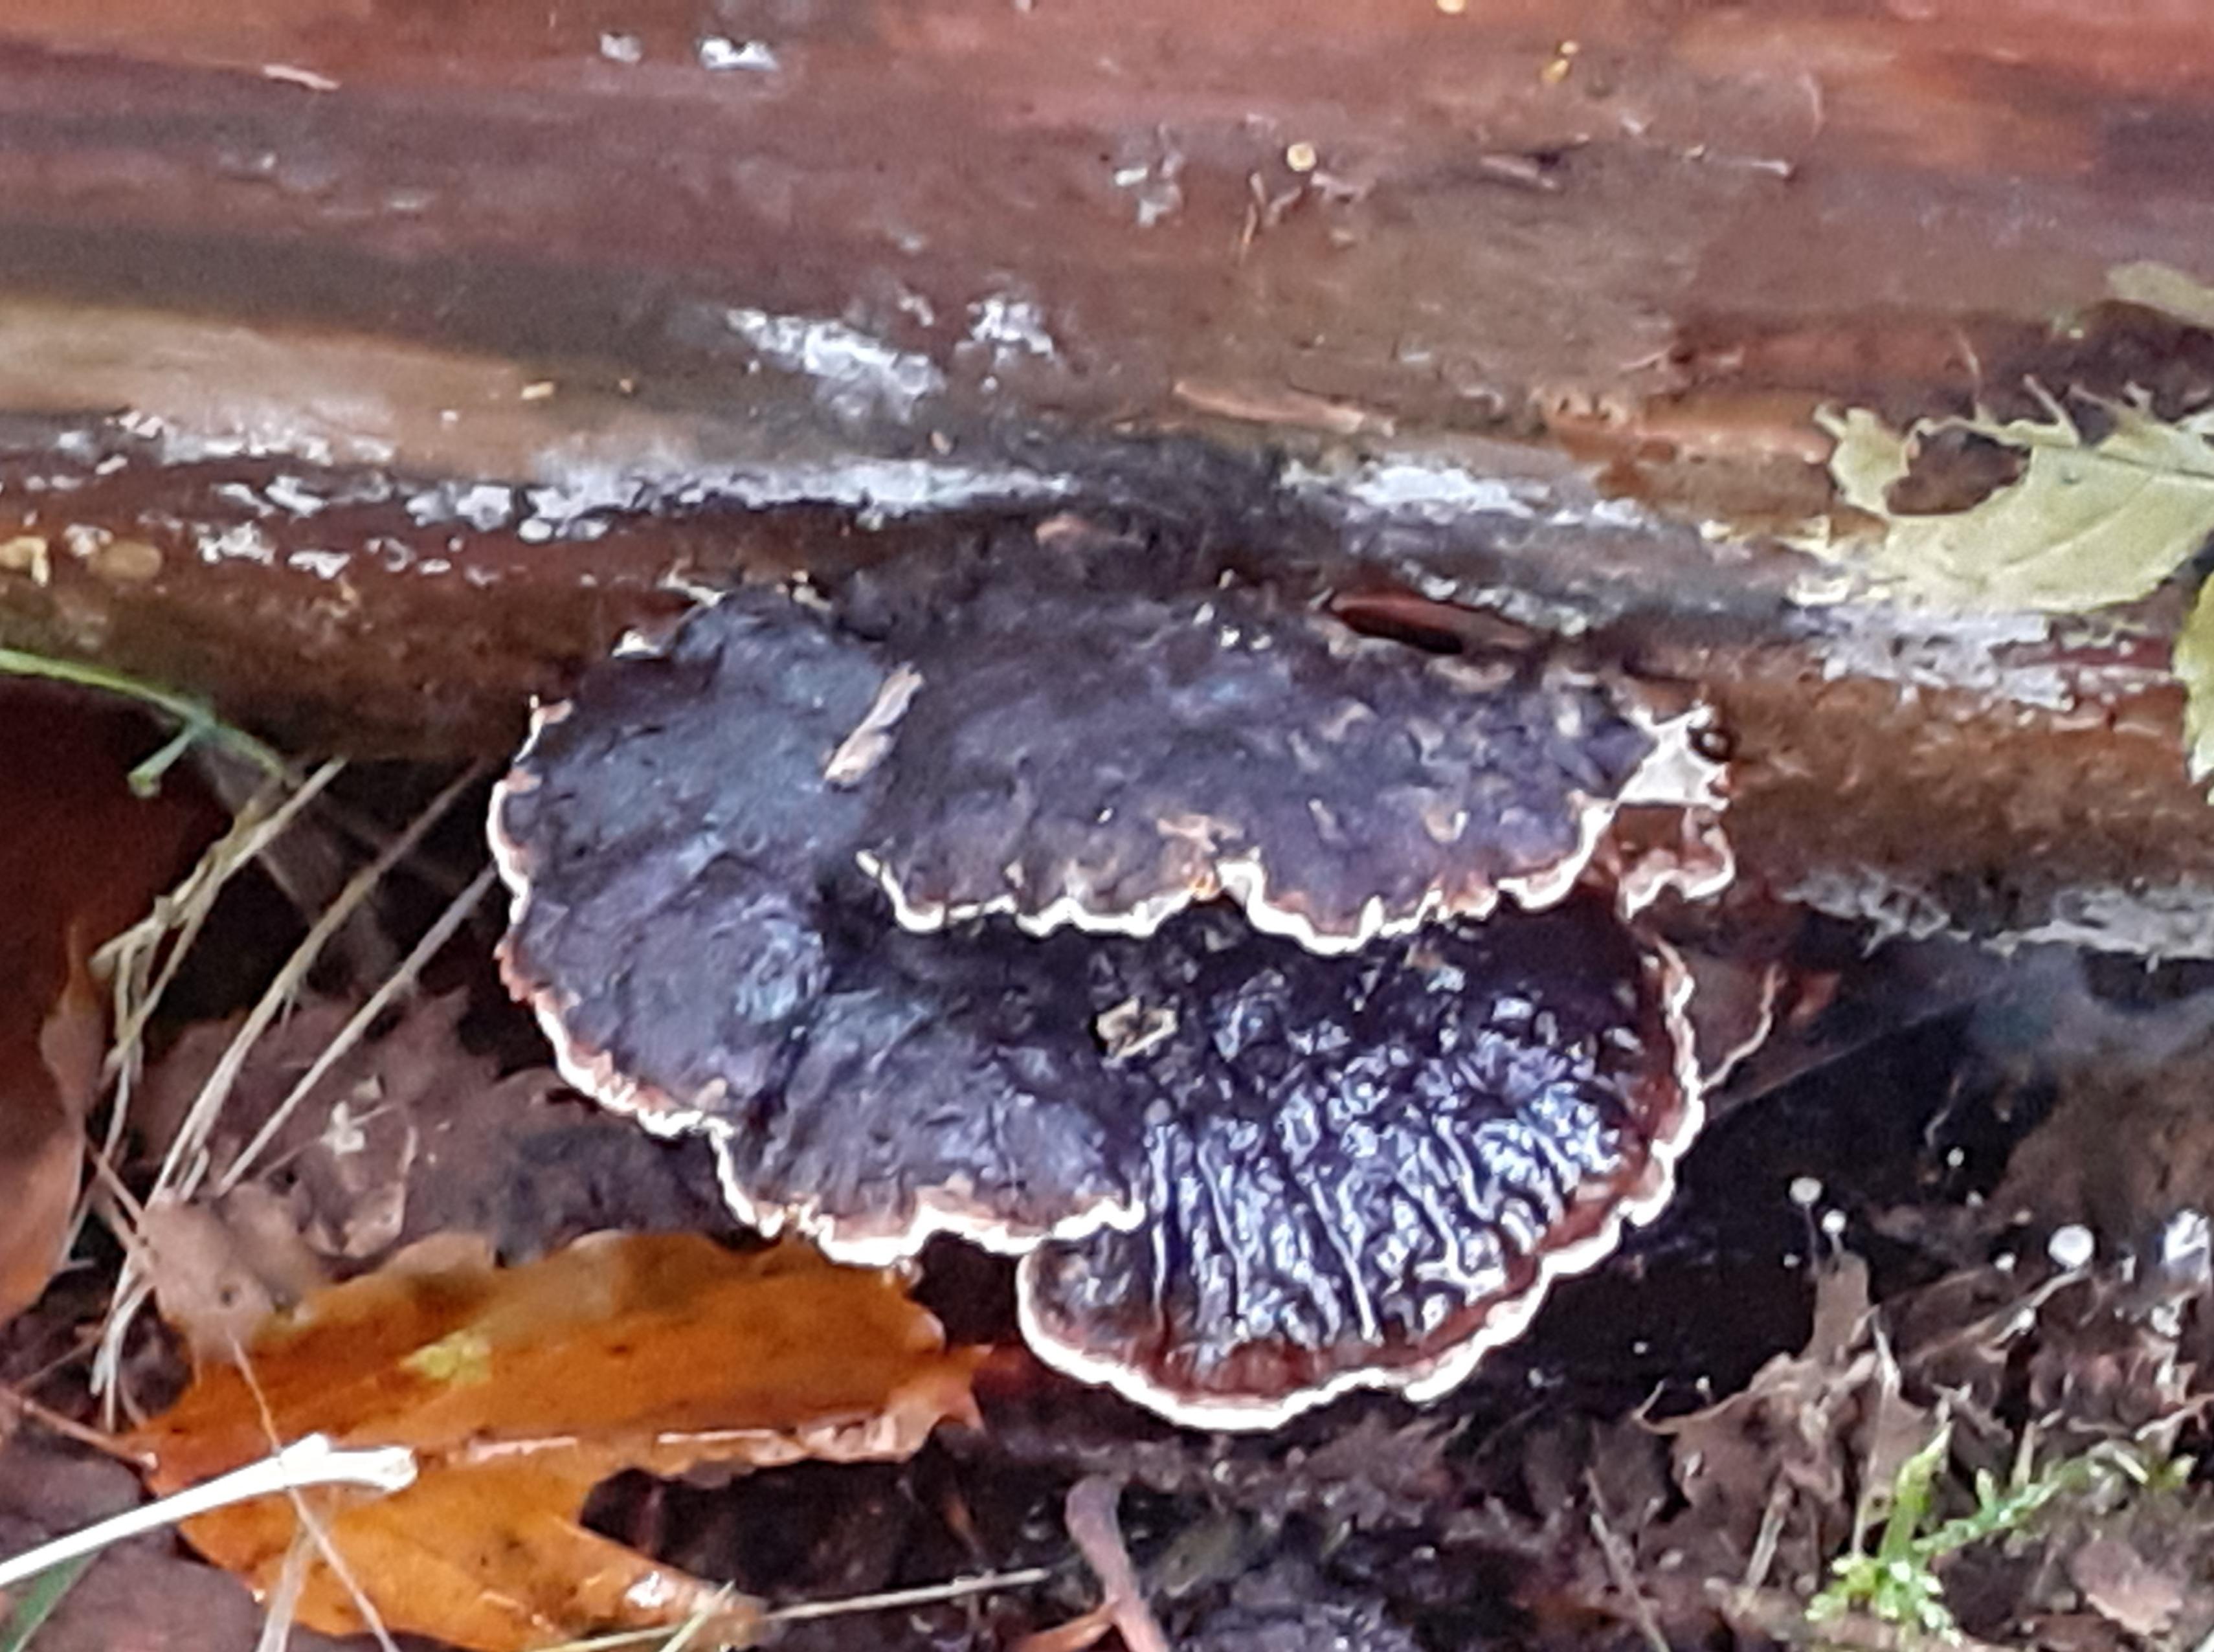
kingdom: Fungi
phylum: Basidiomycota
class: Agaricomycetes
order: Polyporales
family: Ischnodermataceae
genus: Ischnoderma
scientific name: Ischnoderma benzoinum
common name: gran-tjæreporesvamp
